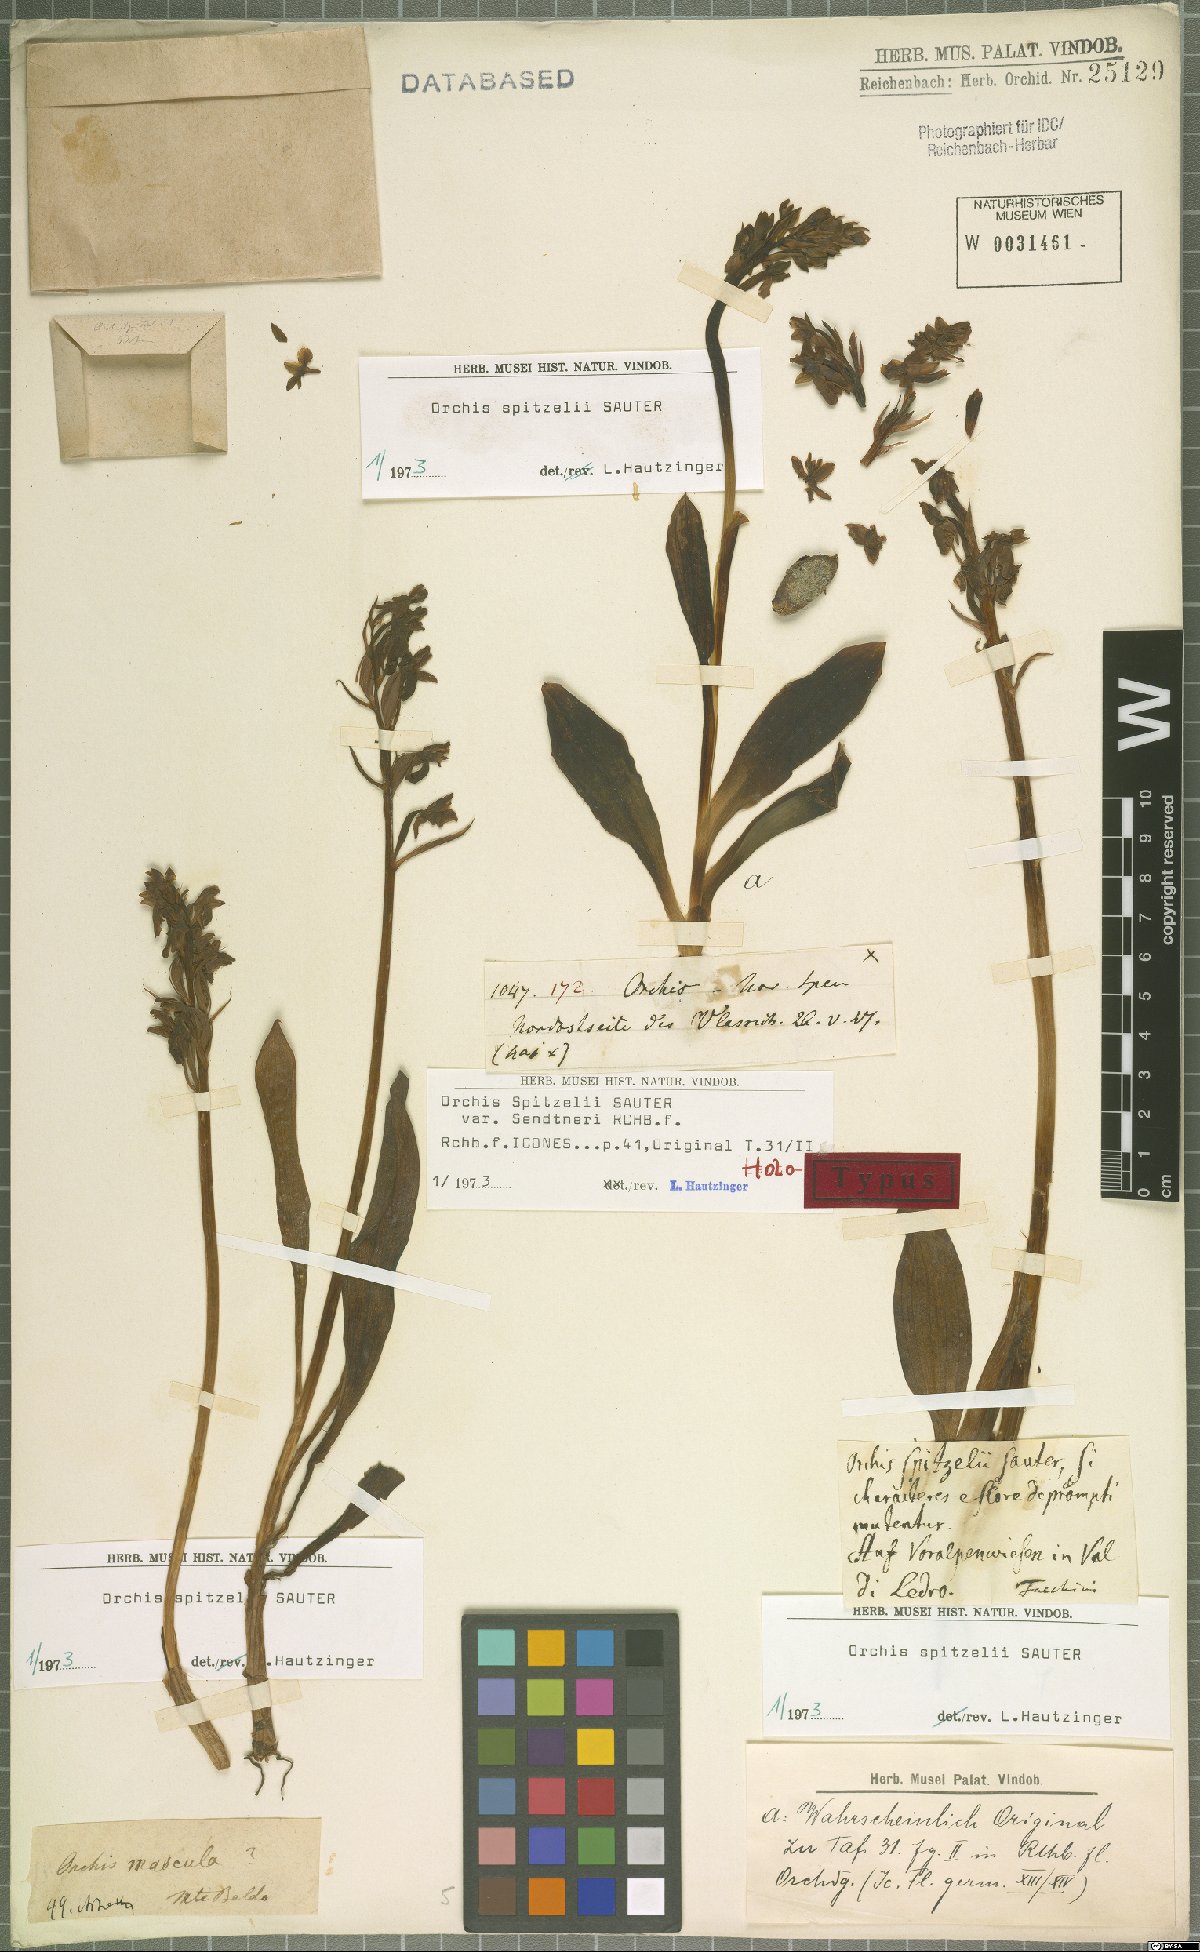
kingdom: Plantae
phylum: Tracheophyta
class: Liliopsida
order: Asparagales
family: Orchidaceae
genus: Orchis
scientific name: Orchis spitzelii
